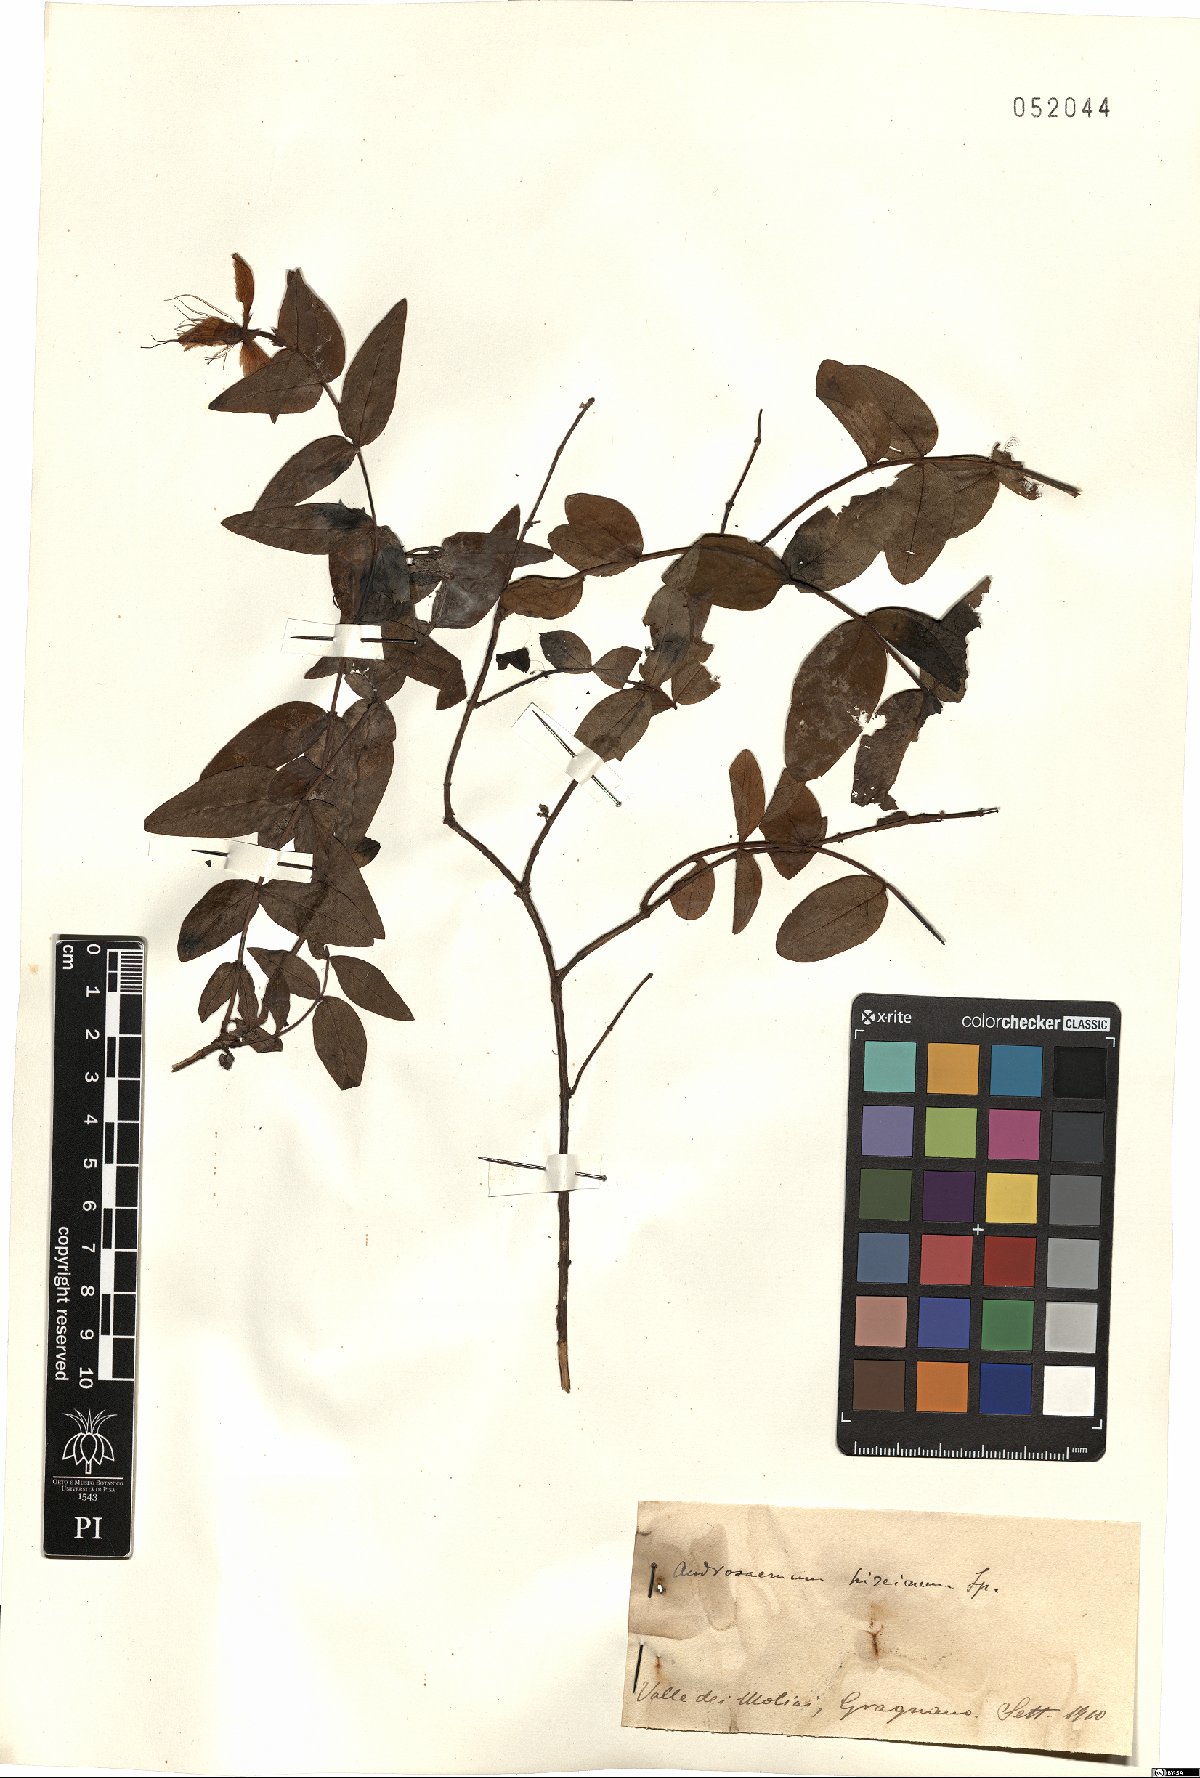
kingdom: Plantae
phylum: Tracheophyta
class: Magnoliopsida
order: Malpighiales
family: Hypericaceae
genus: Hypericum
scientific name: Hypericum hircinum
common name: Stinking tutsan
